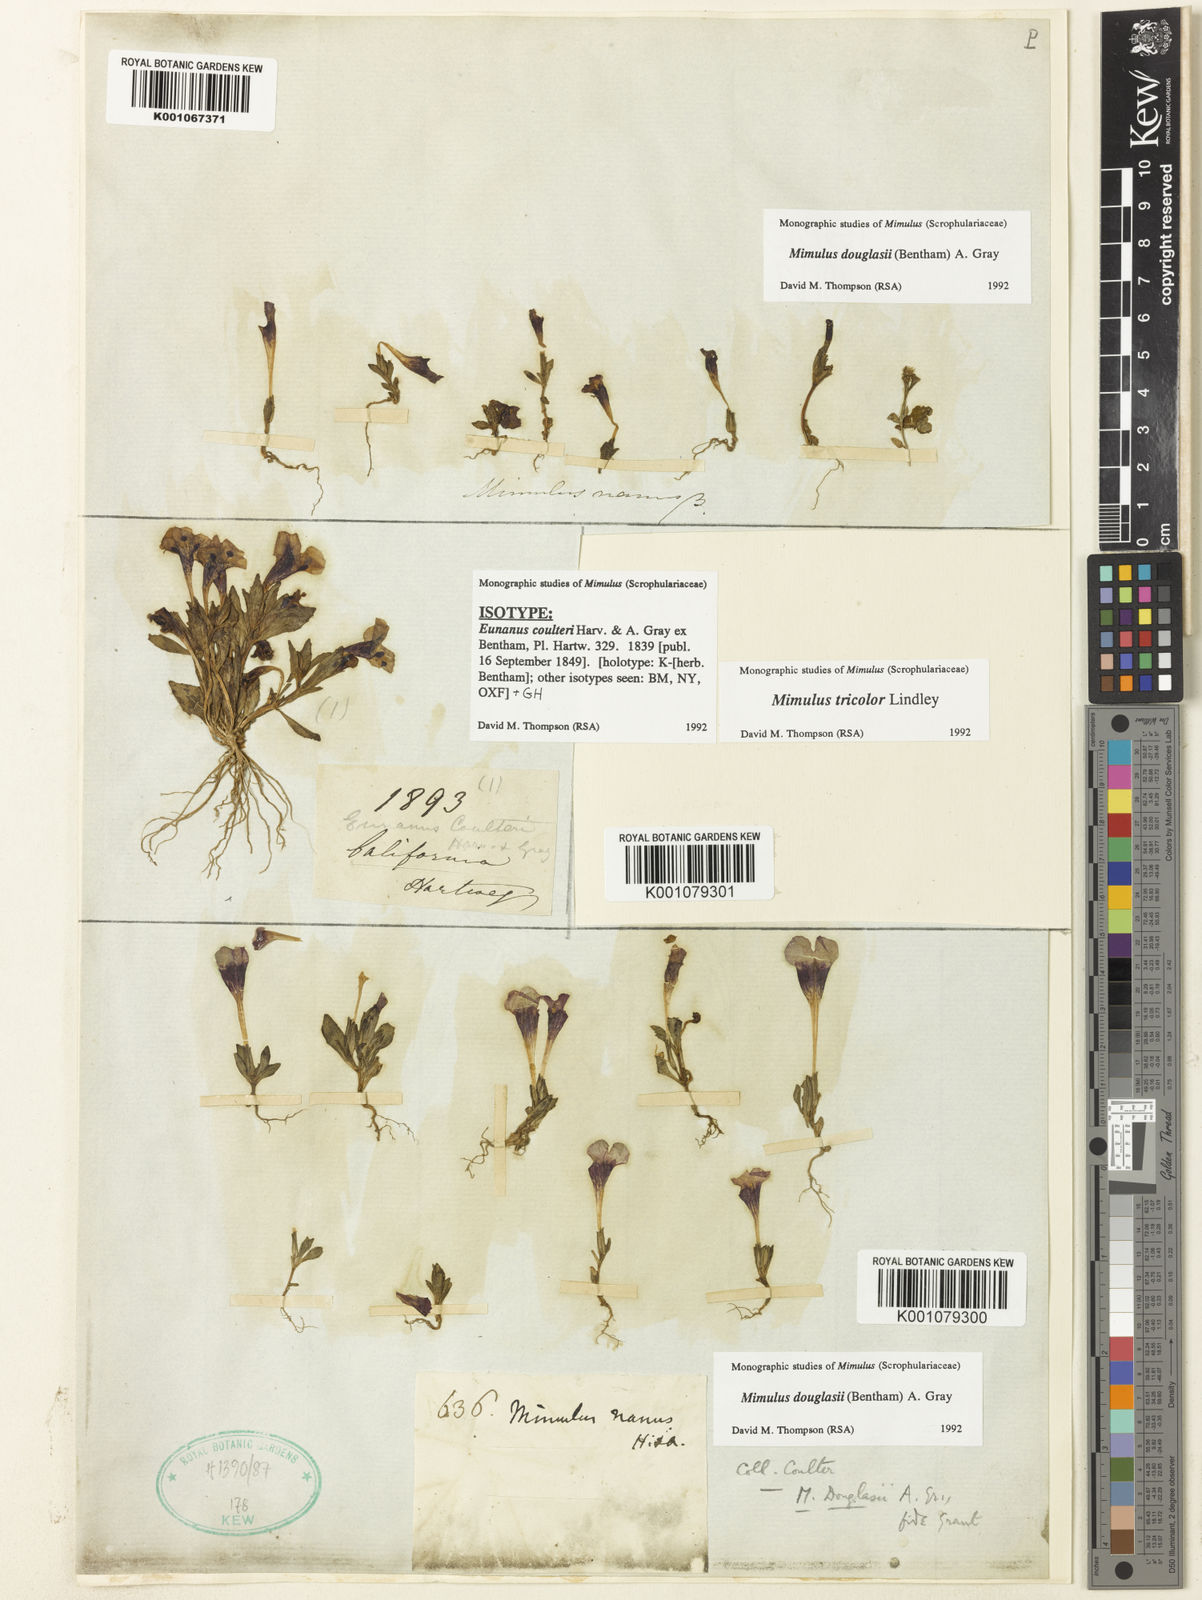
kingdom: Plantae
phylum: Tracheophyta
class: Magnoliopsida
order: Lamiales
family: Phrymaceae
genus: Diplacus
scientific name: Diplacus douglasii
